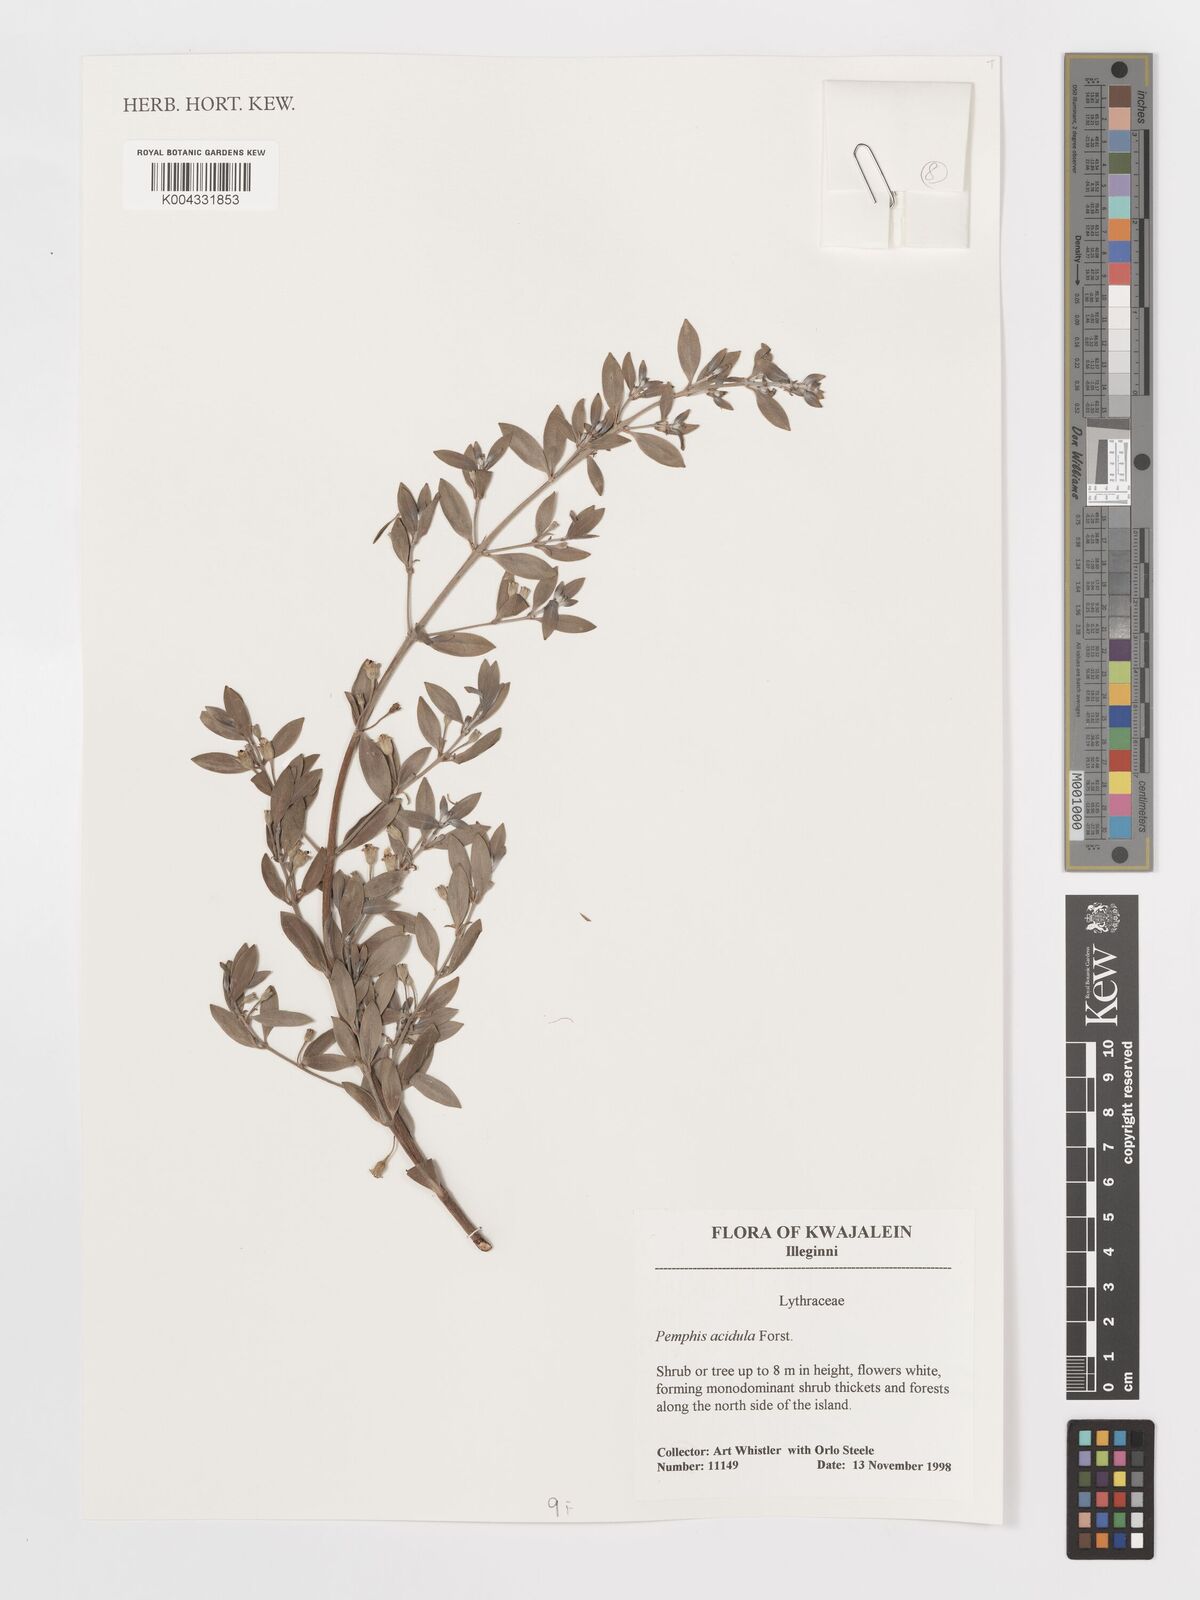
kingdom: Plantae
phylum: Tracheophyta
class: Magnoliopsida
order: Myrtales
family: Lythraceae
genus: Pemphis
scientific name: Pemphis acidula
